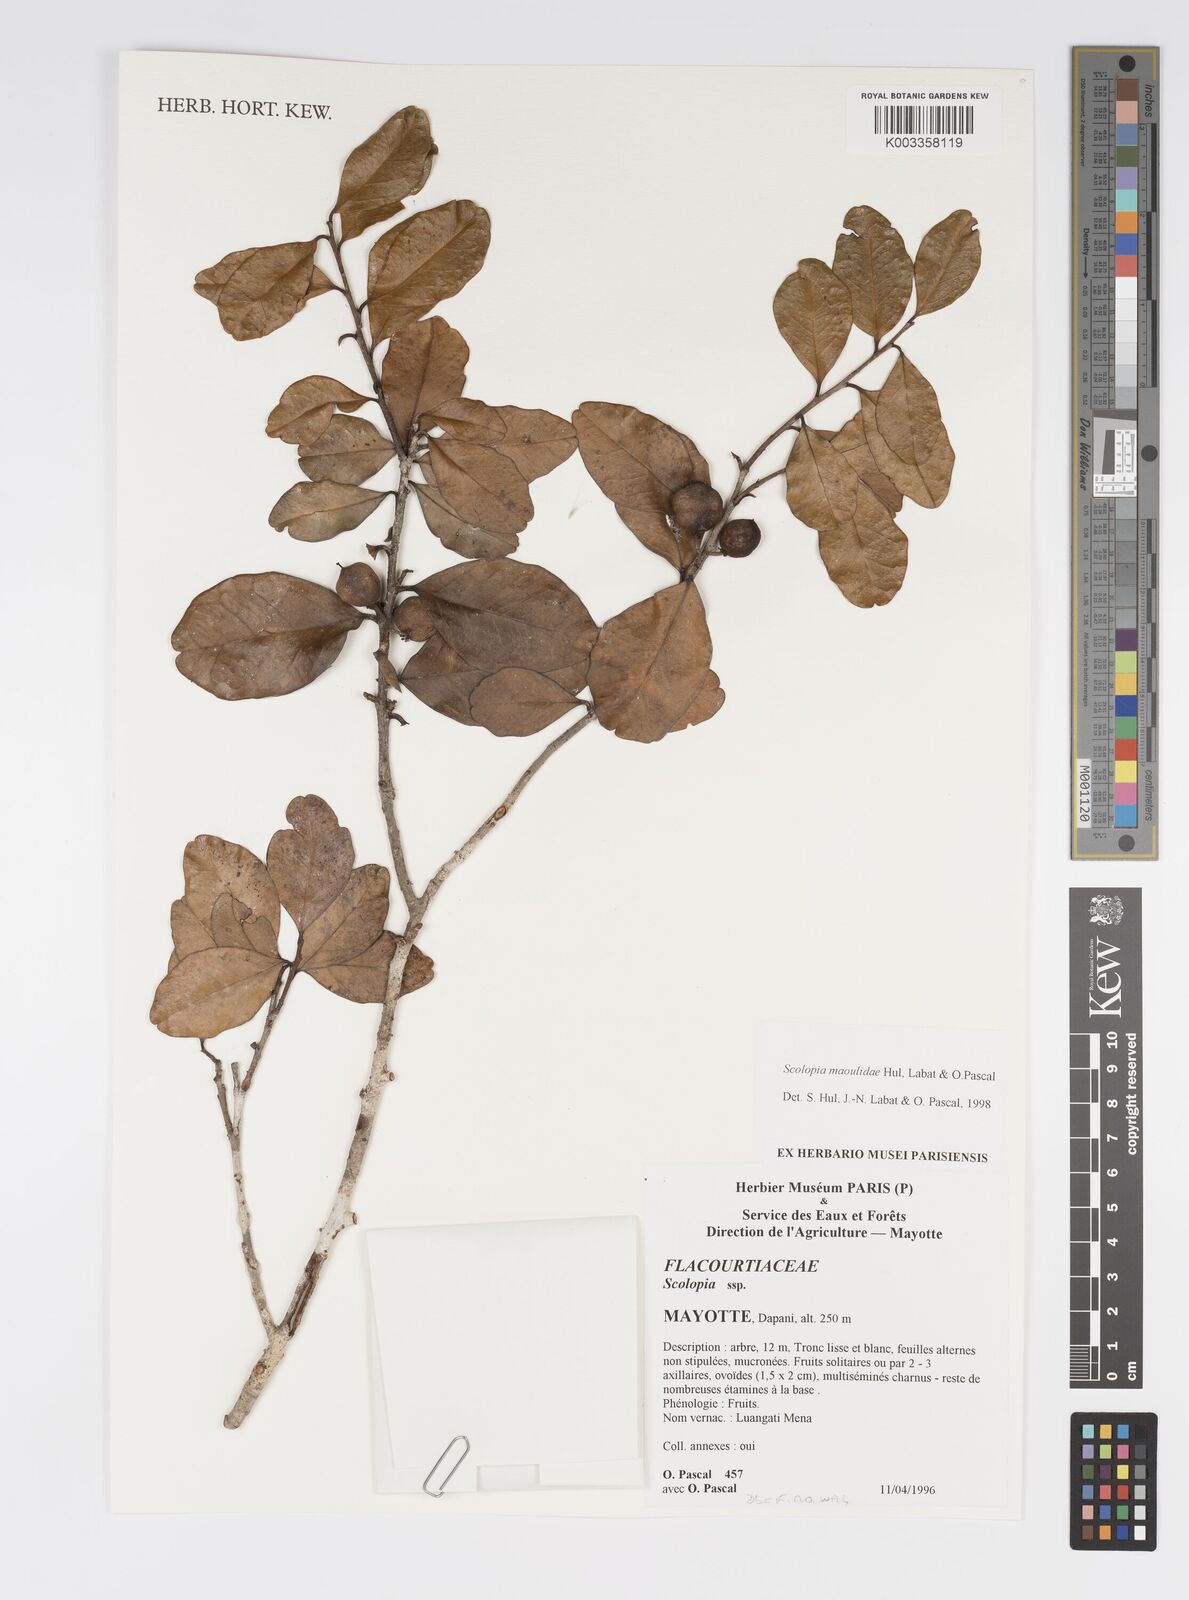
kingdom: Plantae
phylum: Tracheophyta
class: Magnoliopsida
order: Malpighiales
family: Salicaceae
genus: Scolopia
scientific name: Scolopia maoulidae
